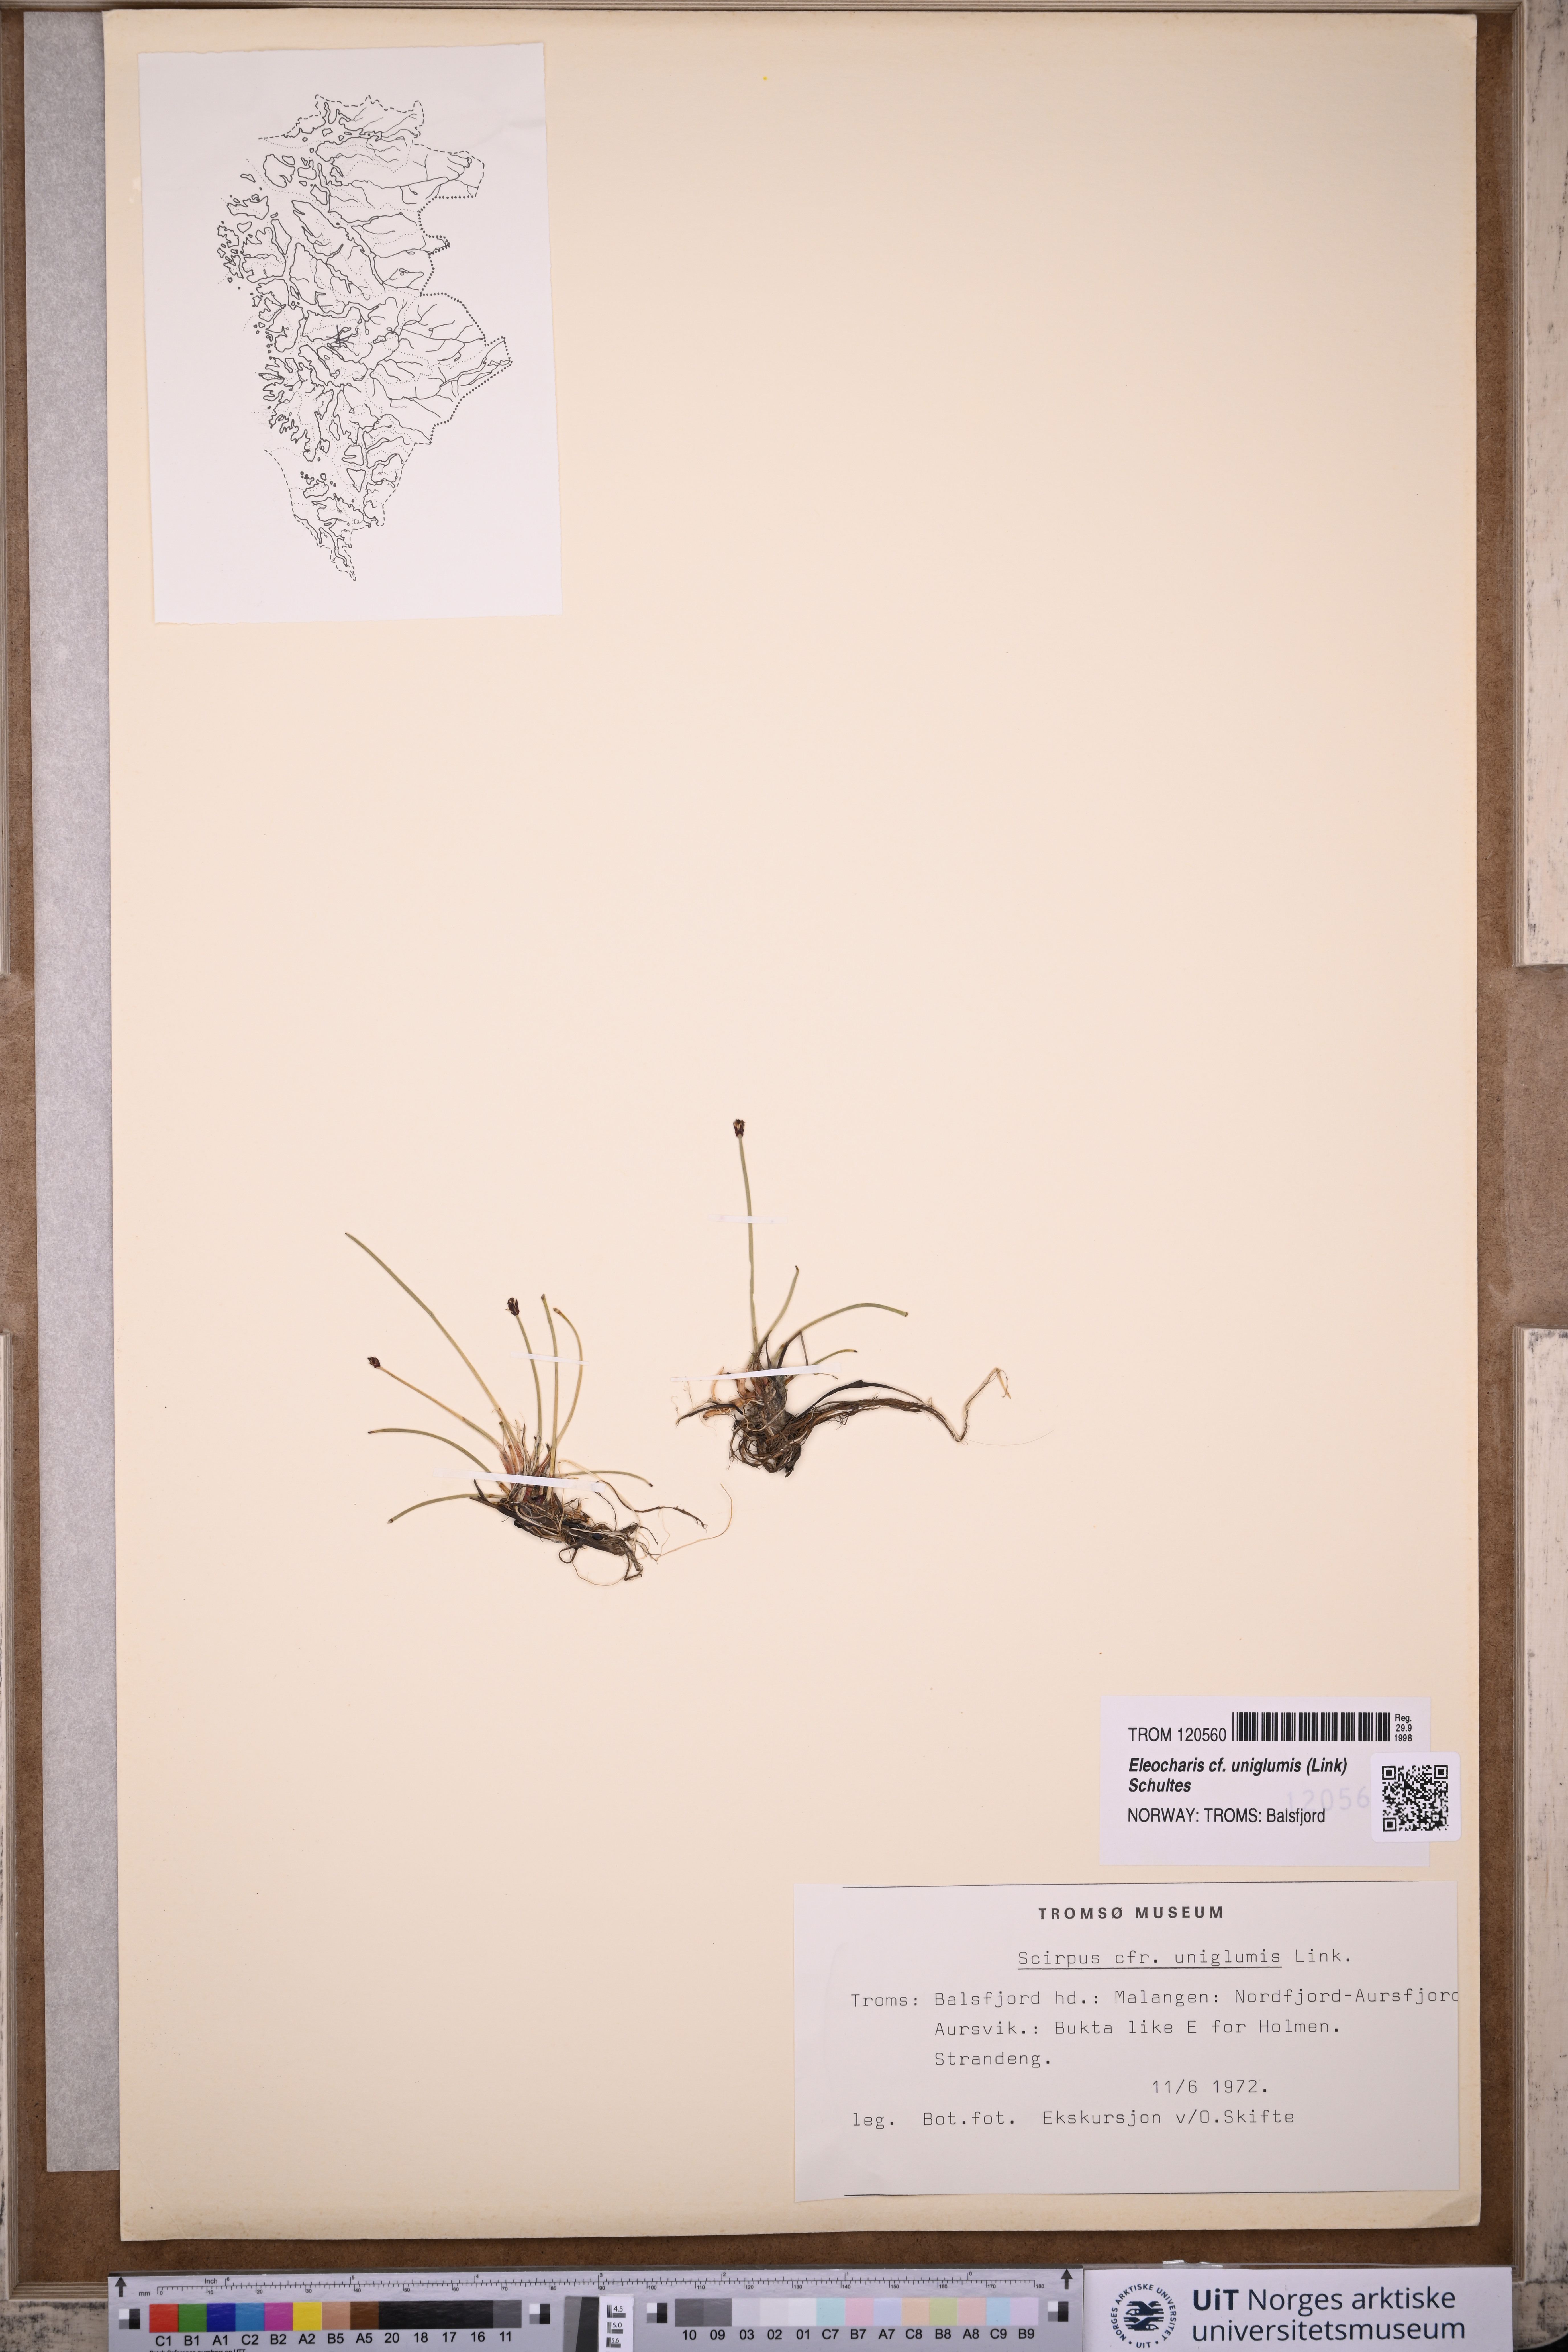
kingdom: Plantae
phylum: Tracheophyta
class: Liliopsida
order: Poales
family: Cyperaceae
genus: Eleocharis
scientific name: Eleocharis uniglumis
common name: Slender spike-rush
